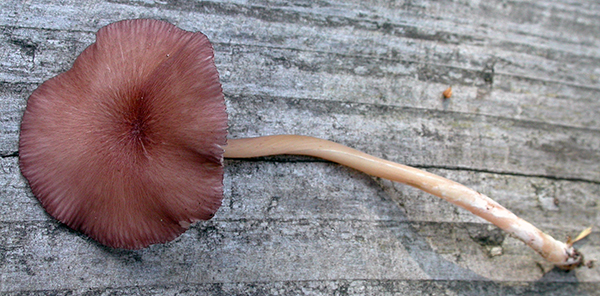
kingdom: Fungi
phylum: Basidiomycota
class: Agaricomycetes
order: Agaricales
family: Entolomataceae
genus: Entoloma
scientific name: Entoloma serrulatum
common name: savbladet rødblad
